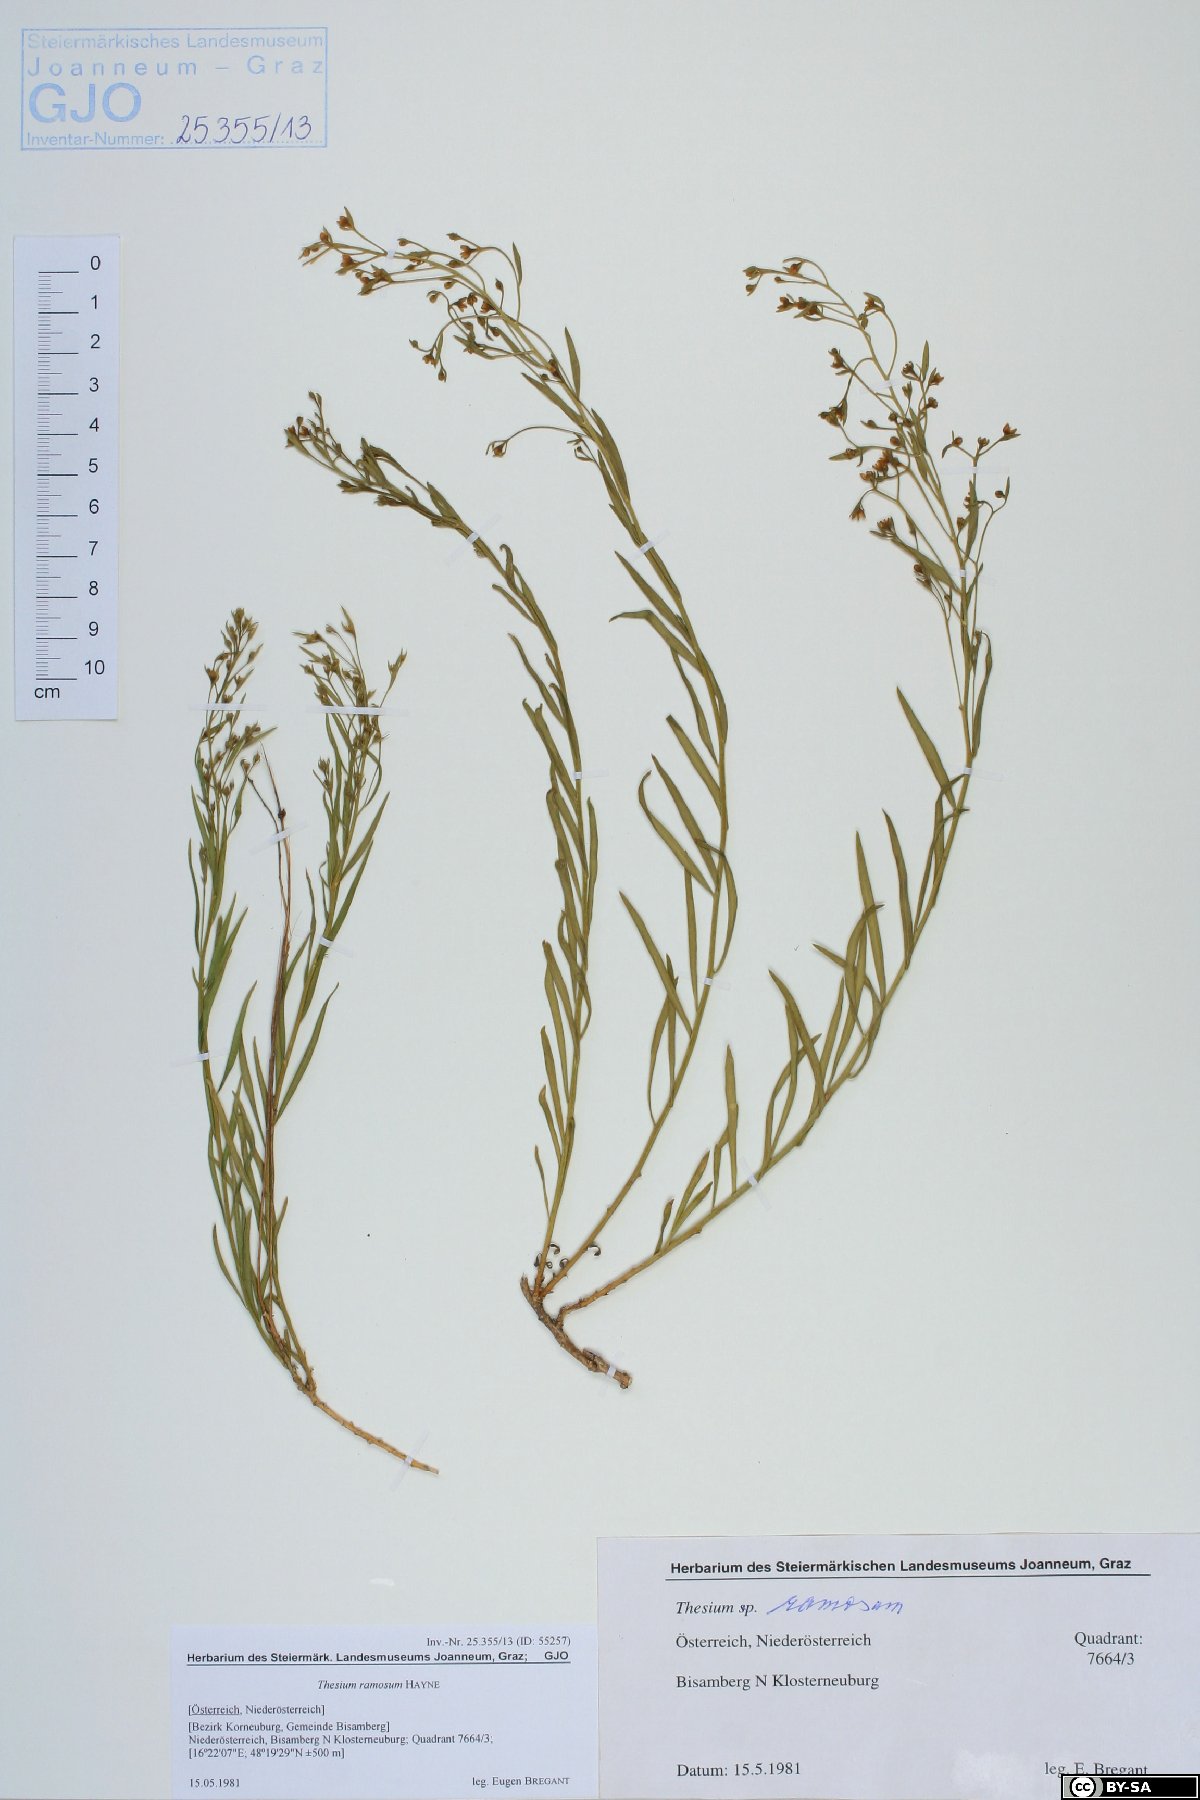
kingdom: Plantae
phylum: Tracheophyta
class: Magnoliopsida
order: Santalales
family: Thesiaceae
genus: Thesium
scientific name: Thesium ramosum
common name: Field thesium
